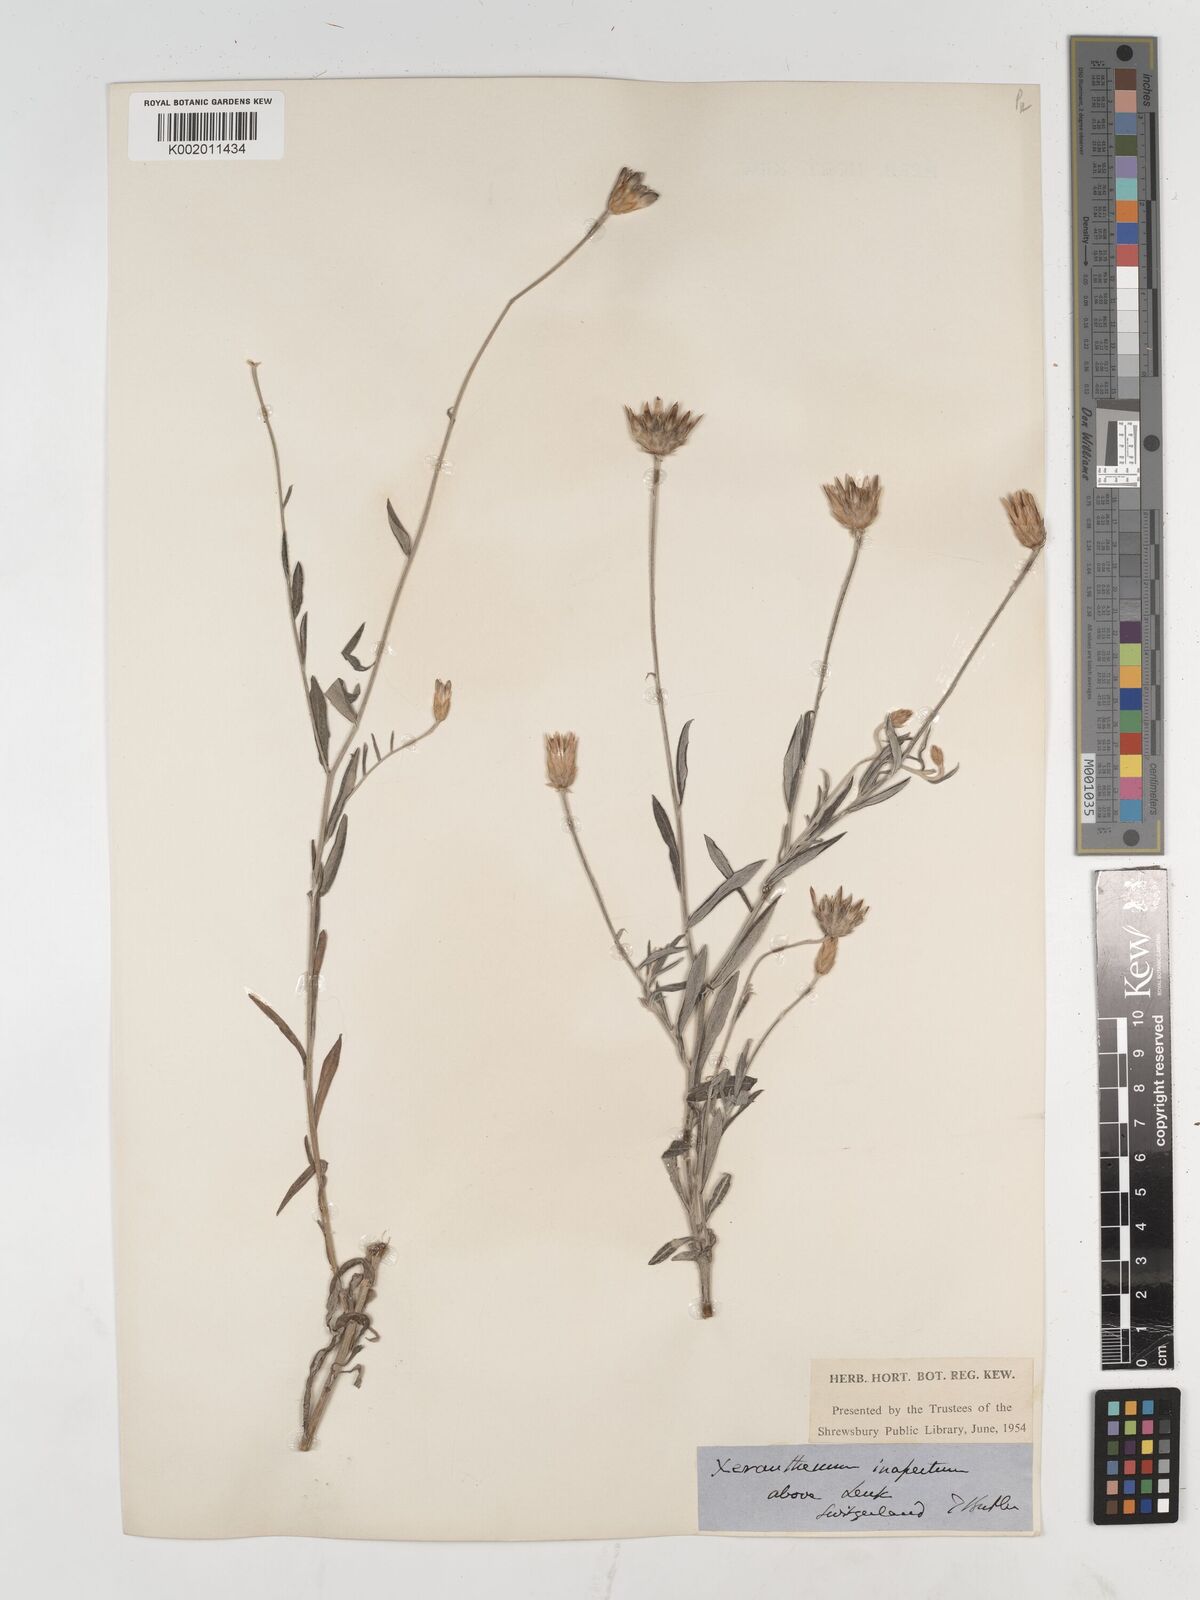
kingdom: Plantae
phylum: Tracheophyta
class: Magnoliopsida
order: Asterales
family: Asteraceae
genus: Xeranthemum
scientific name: Xeranthemum
